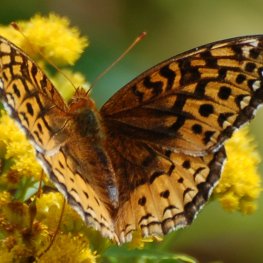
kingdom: Animalia
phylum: Arthropoda
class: Insecta
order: Lepidoptera
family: Nymphalidae
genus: Speyeria
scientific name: Speyeria cybele
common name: Great Spangled Fritillary
